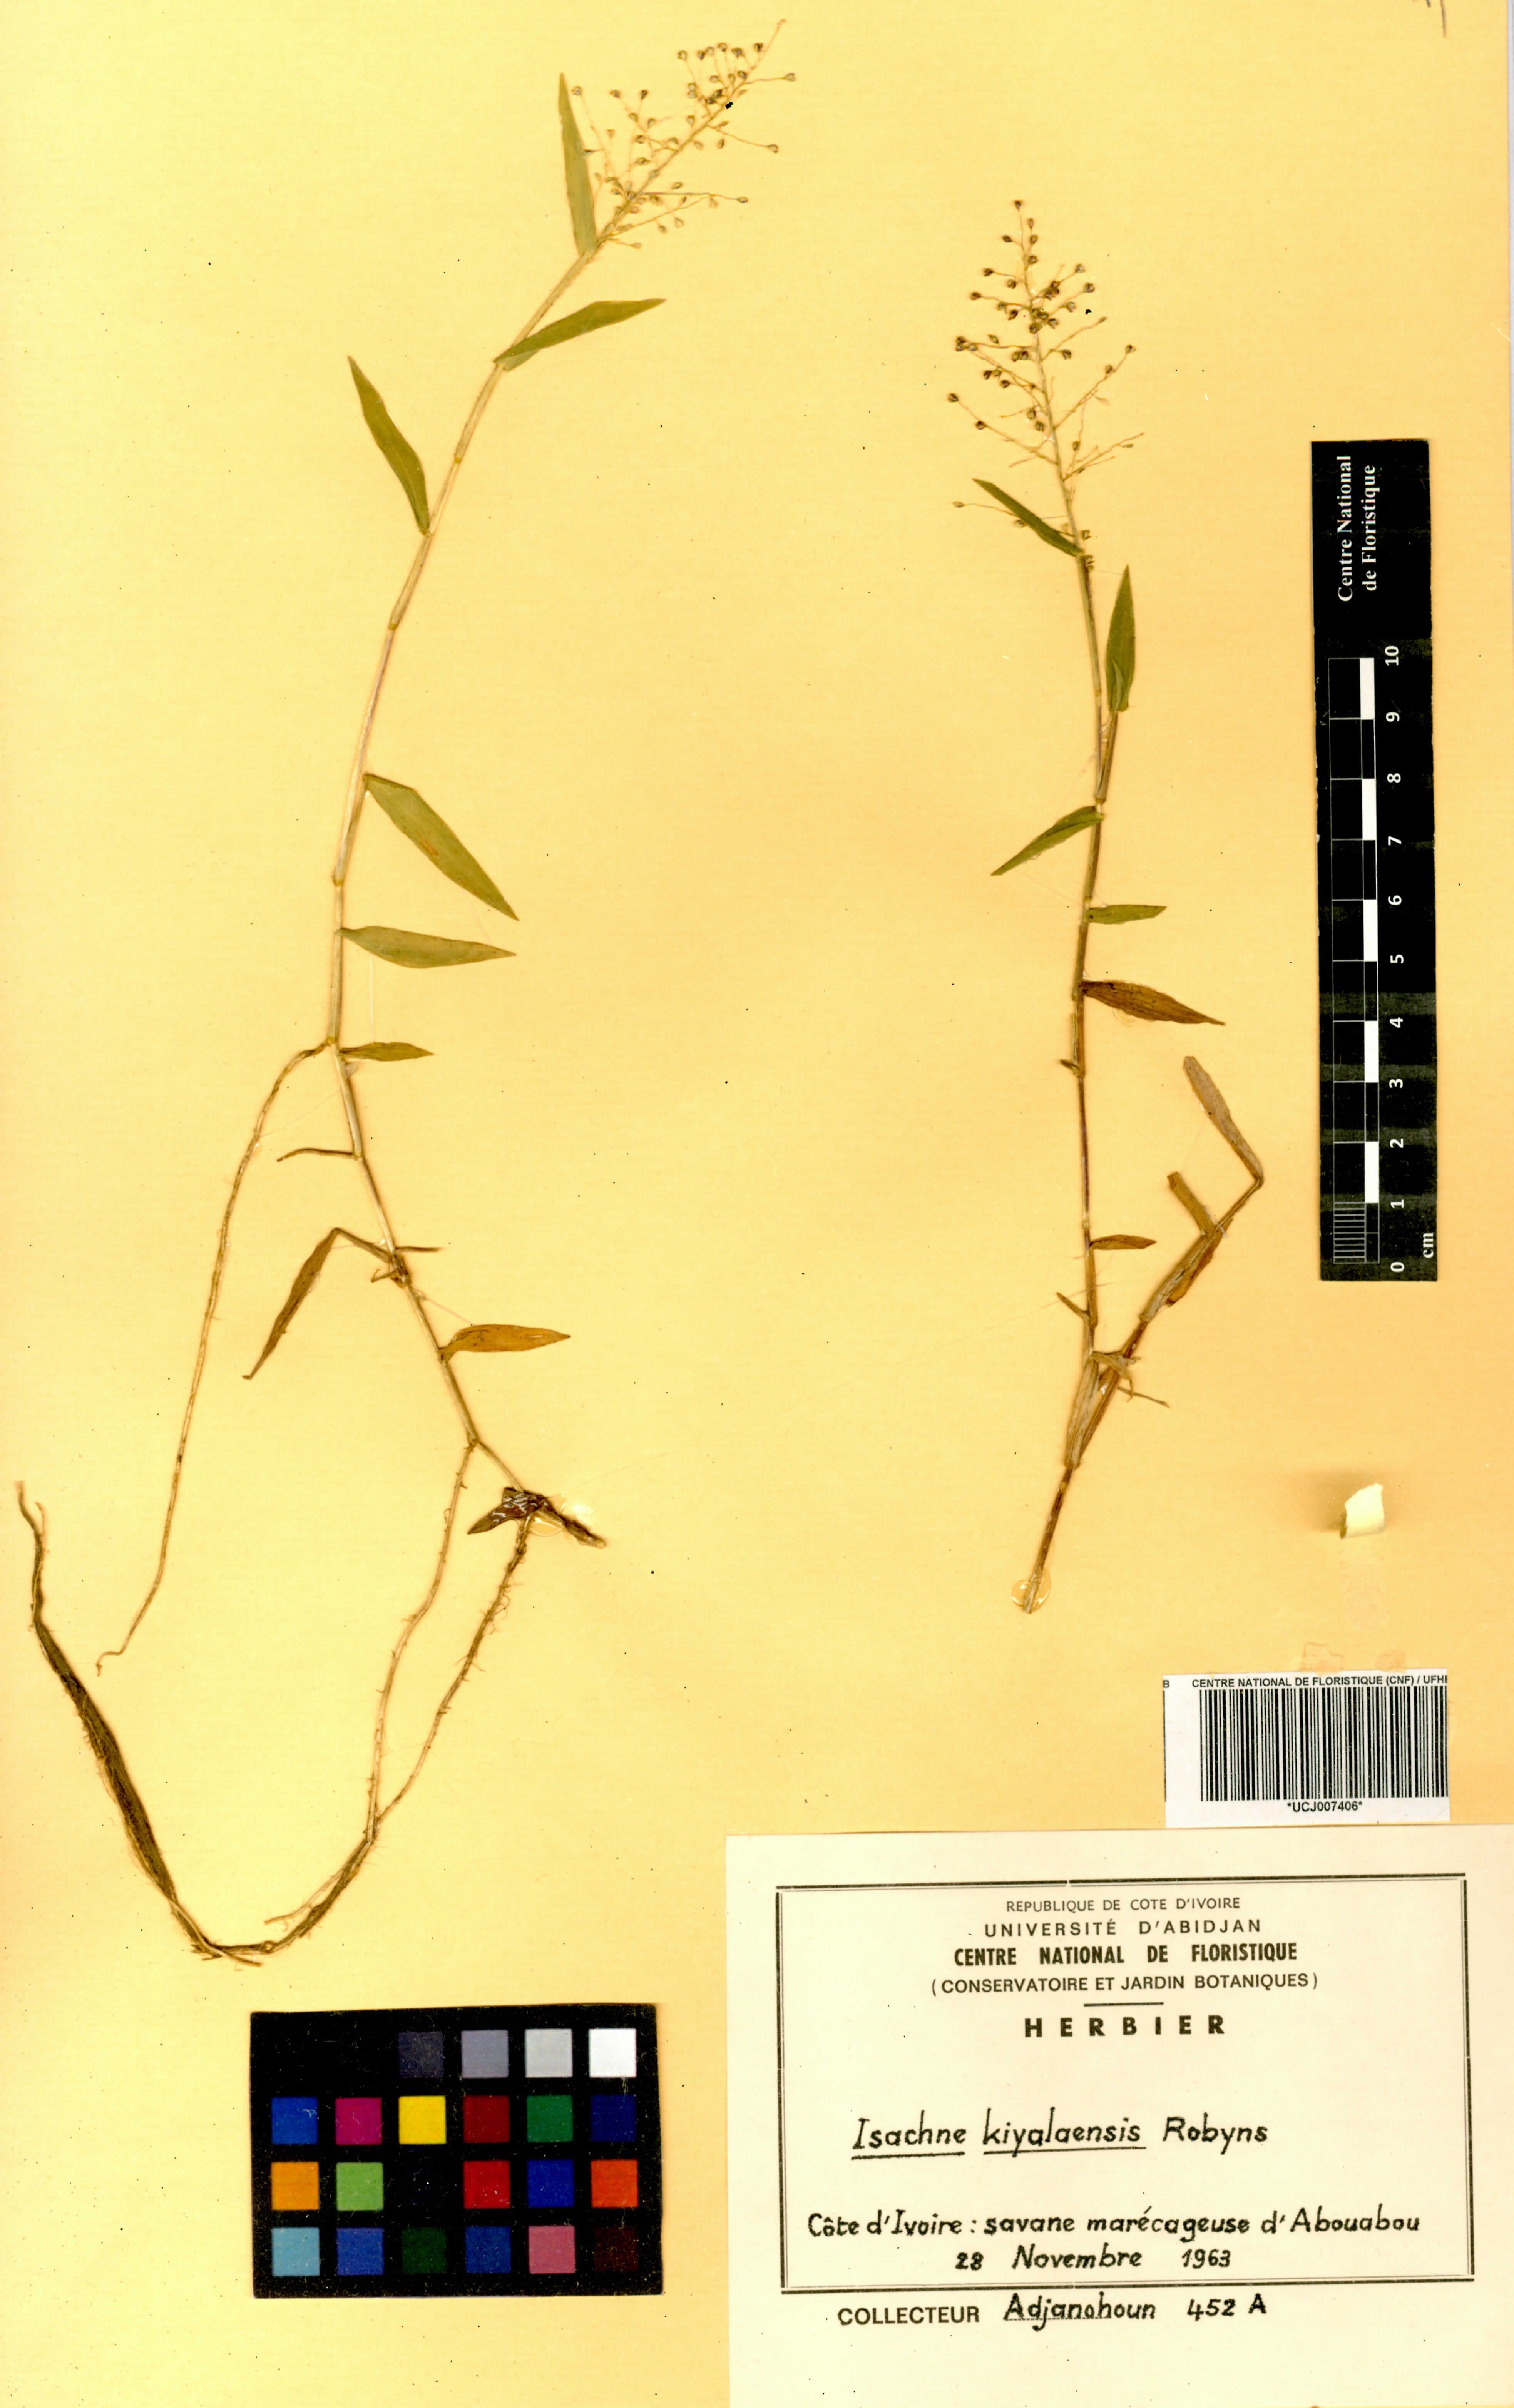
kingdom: Plantae
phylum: Tracheophyta
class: Liliopsida
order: Poales
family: Poaceae
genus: Isachne
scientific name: Isachne kiyalaensis
